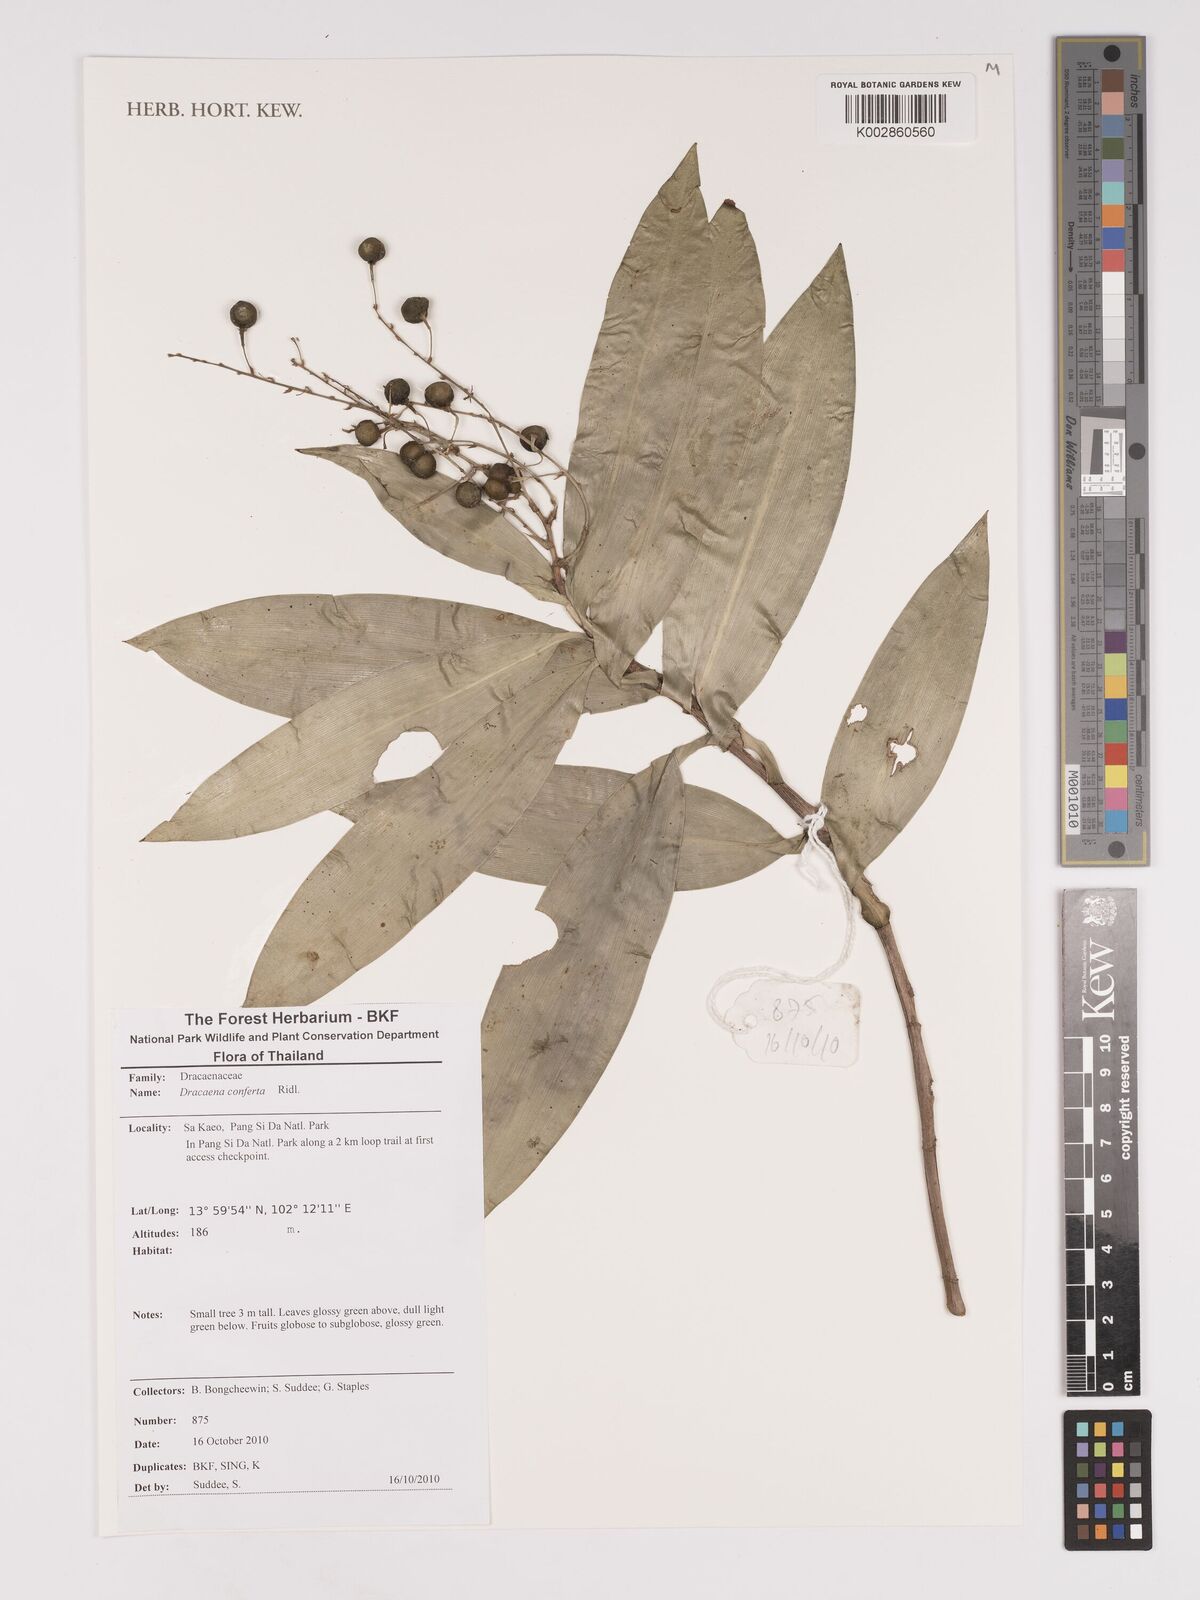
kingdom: Plantae
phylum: Tracheophyta
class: Liliopsida
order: Asparagales
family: Asparagaceae
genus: Dracaena
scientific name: Dracaena conferta
